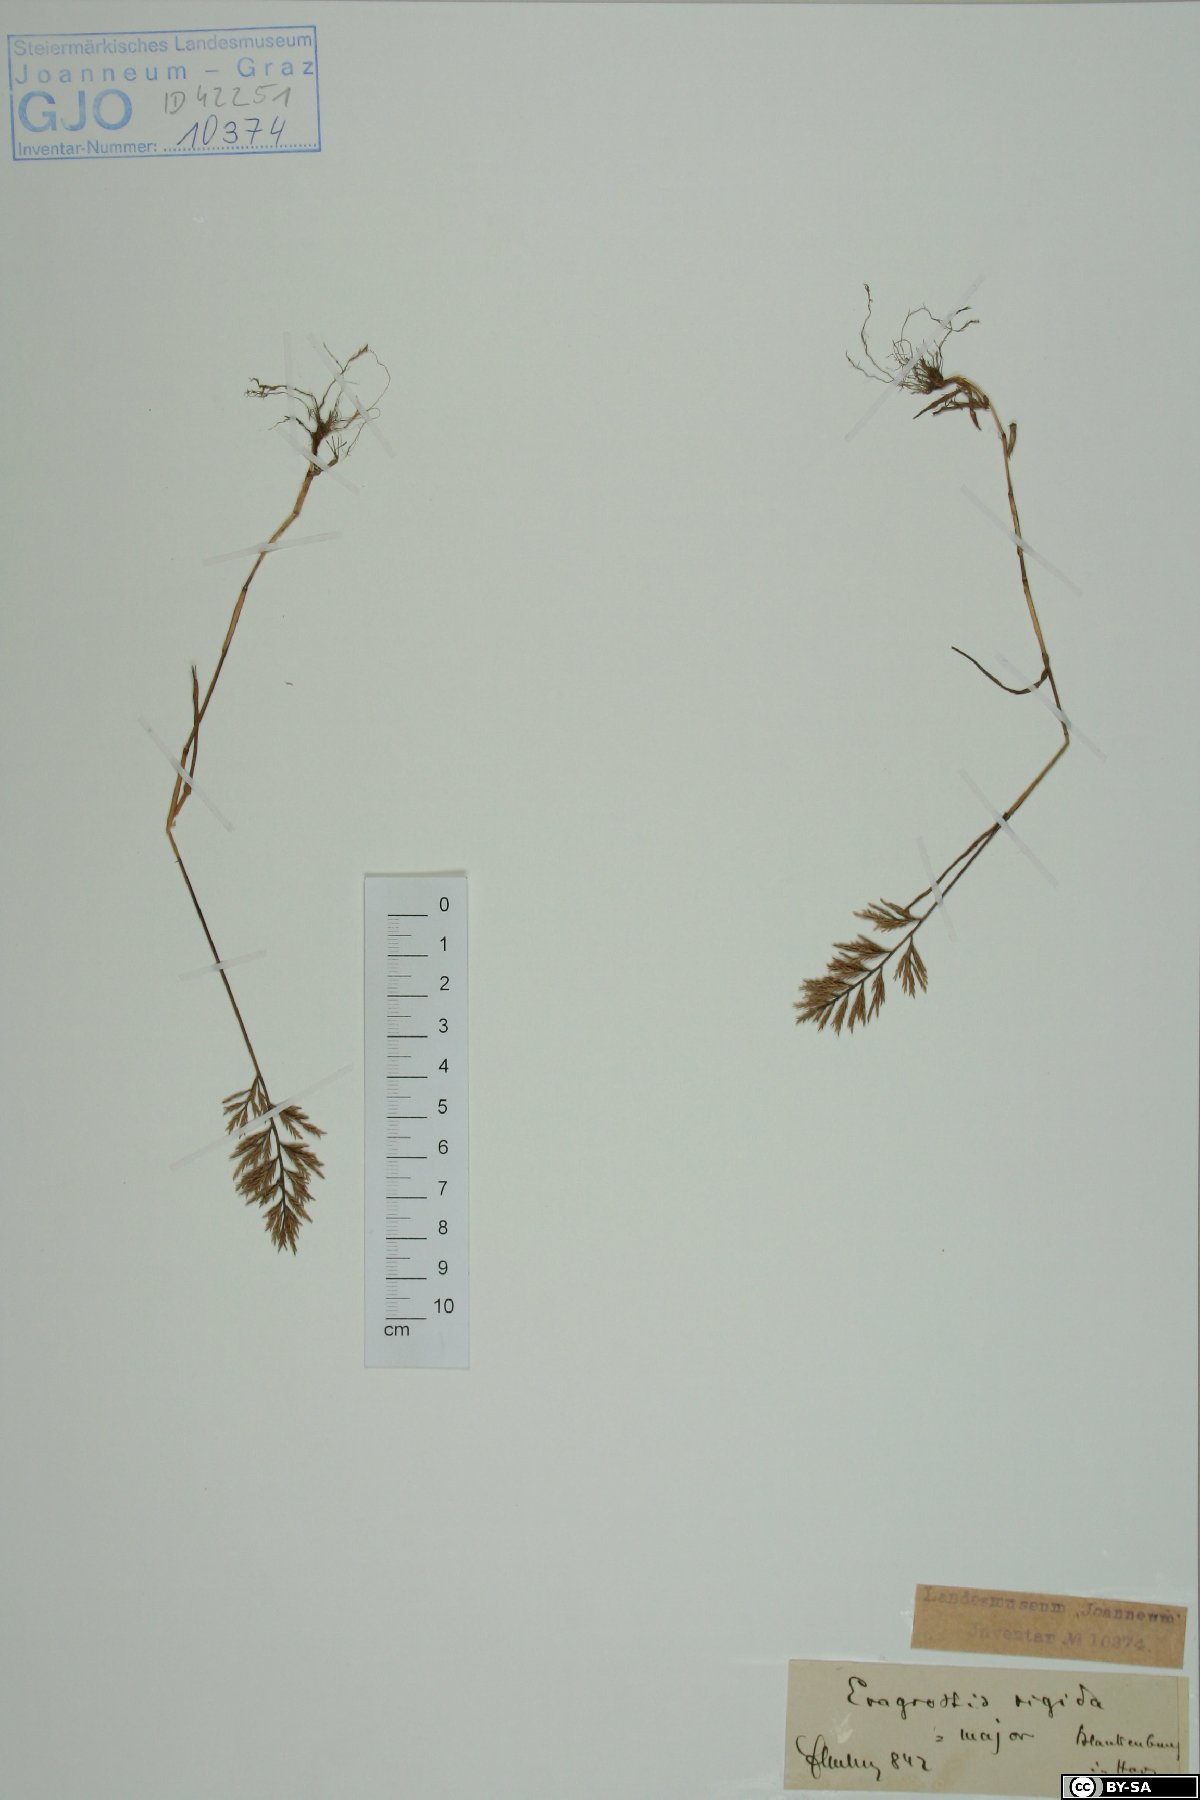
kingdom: Plantae
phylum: Tracheophyta
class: Liliopsida
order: Poales
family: Poaceae
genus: Eragrostis
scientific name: Eragrostis sessilispica
